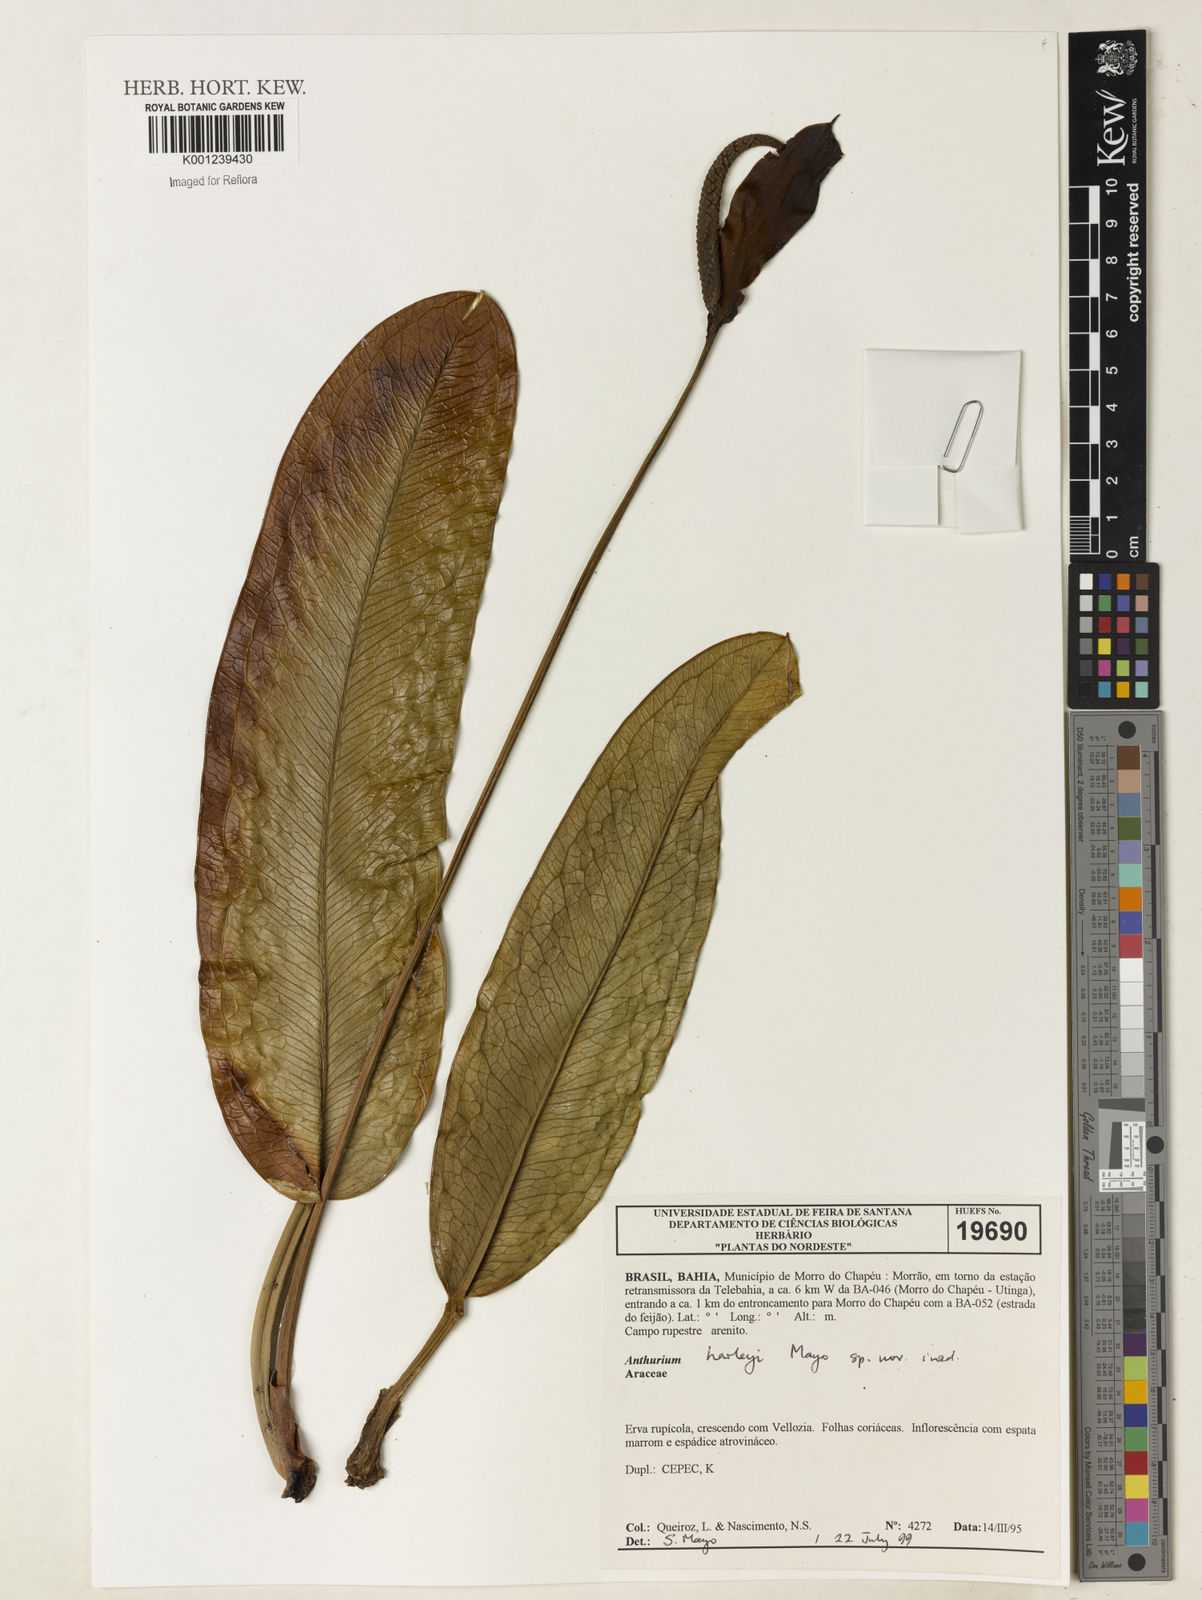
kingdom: Plantae
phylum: Tracheophyta
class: Liliopsida
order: Alismatales
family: Araceae
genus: Anthurium
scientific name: Anthurium
